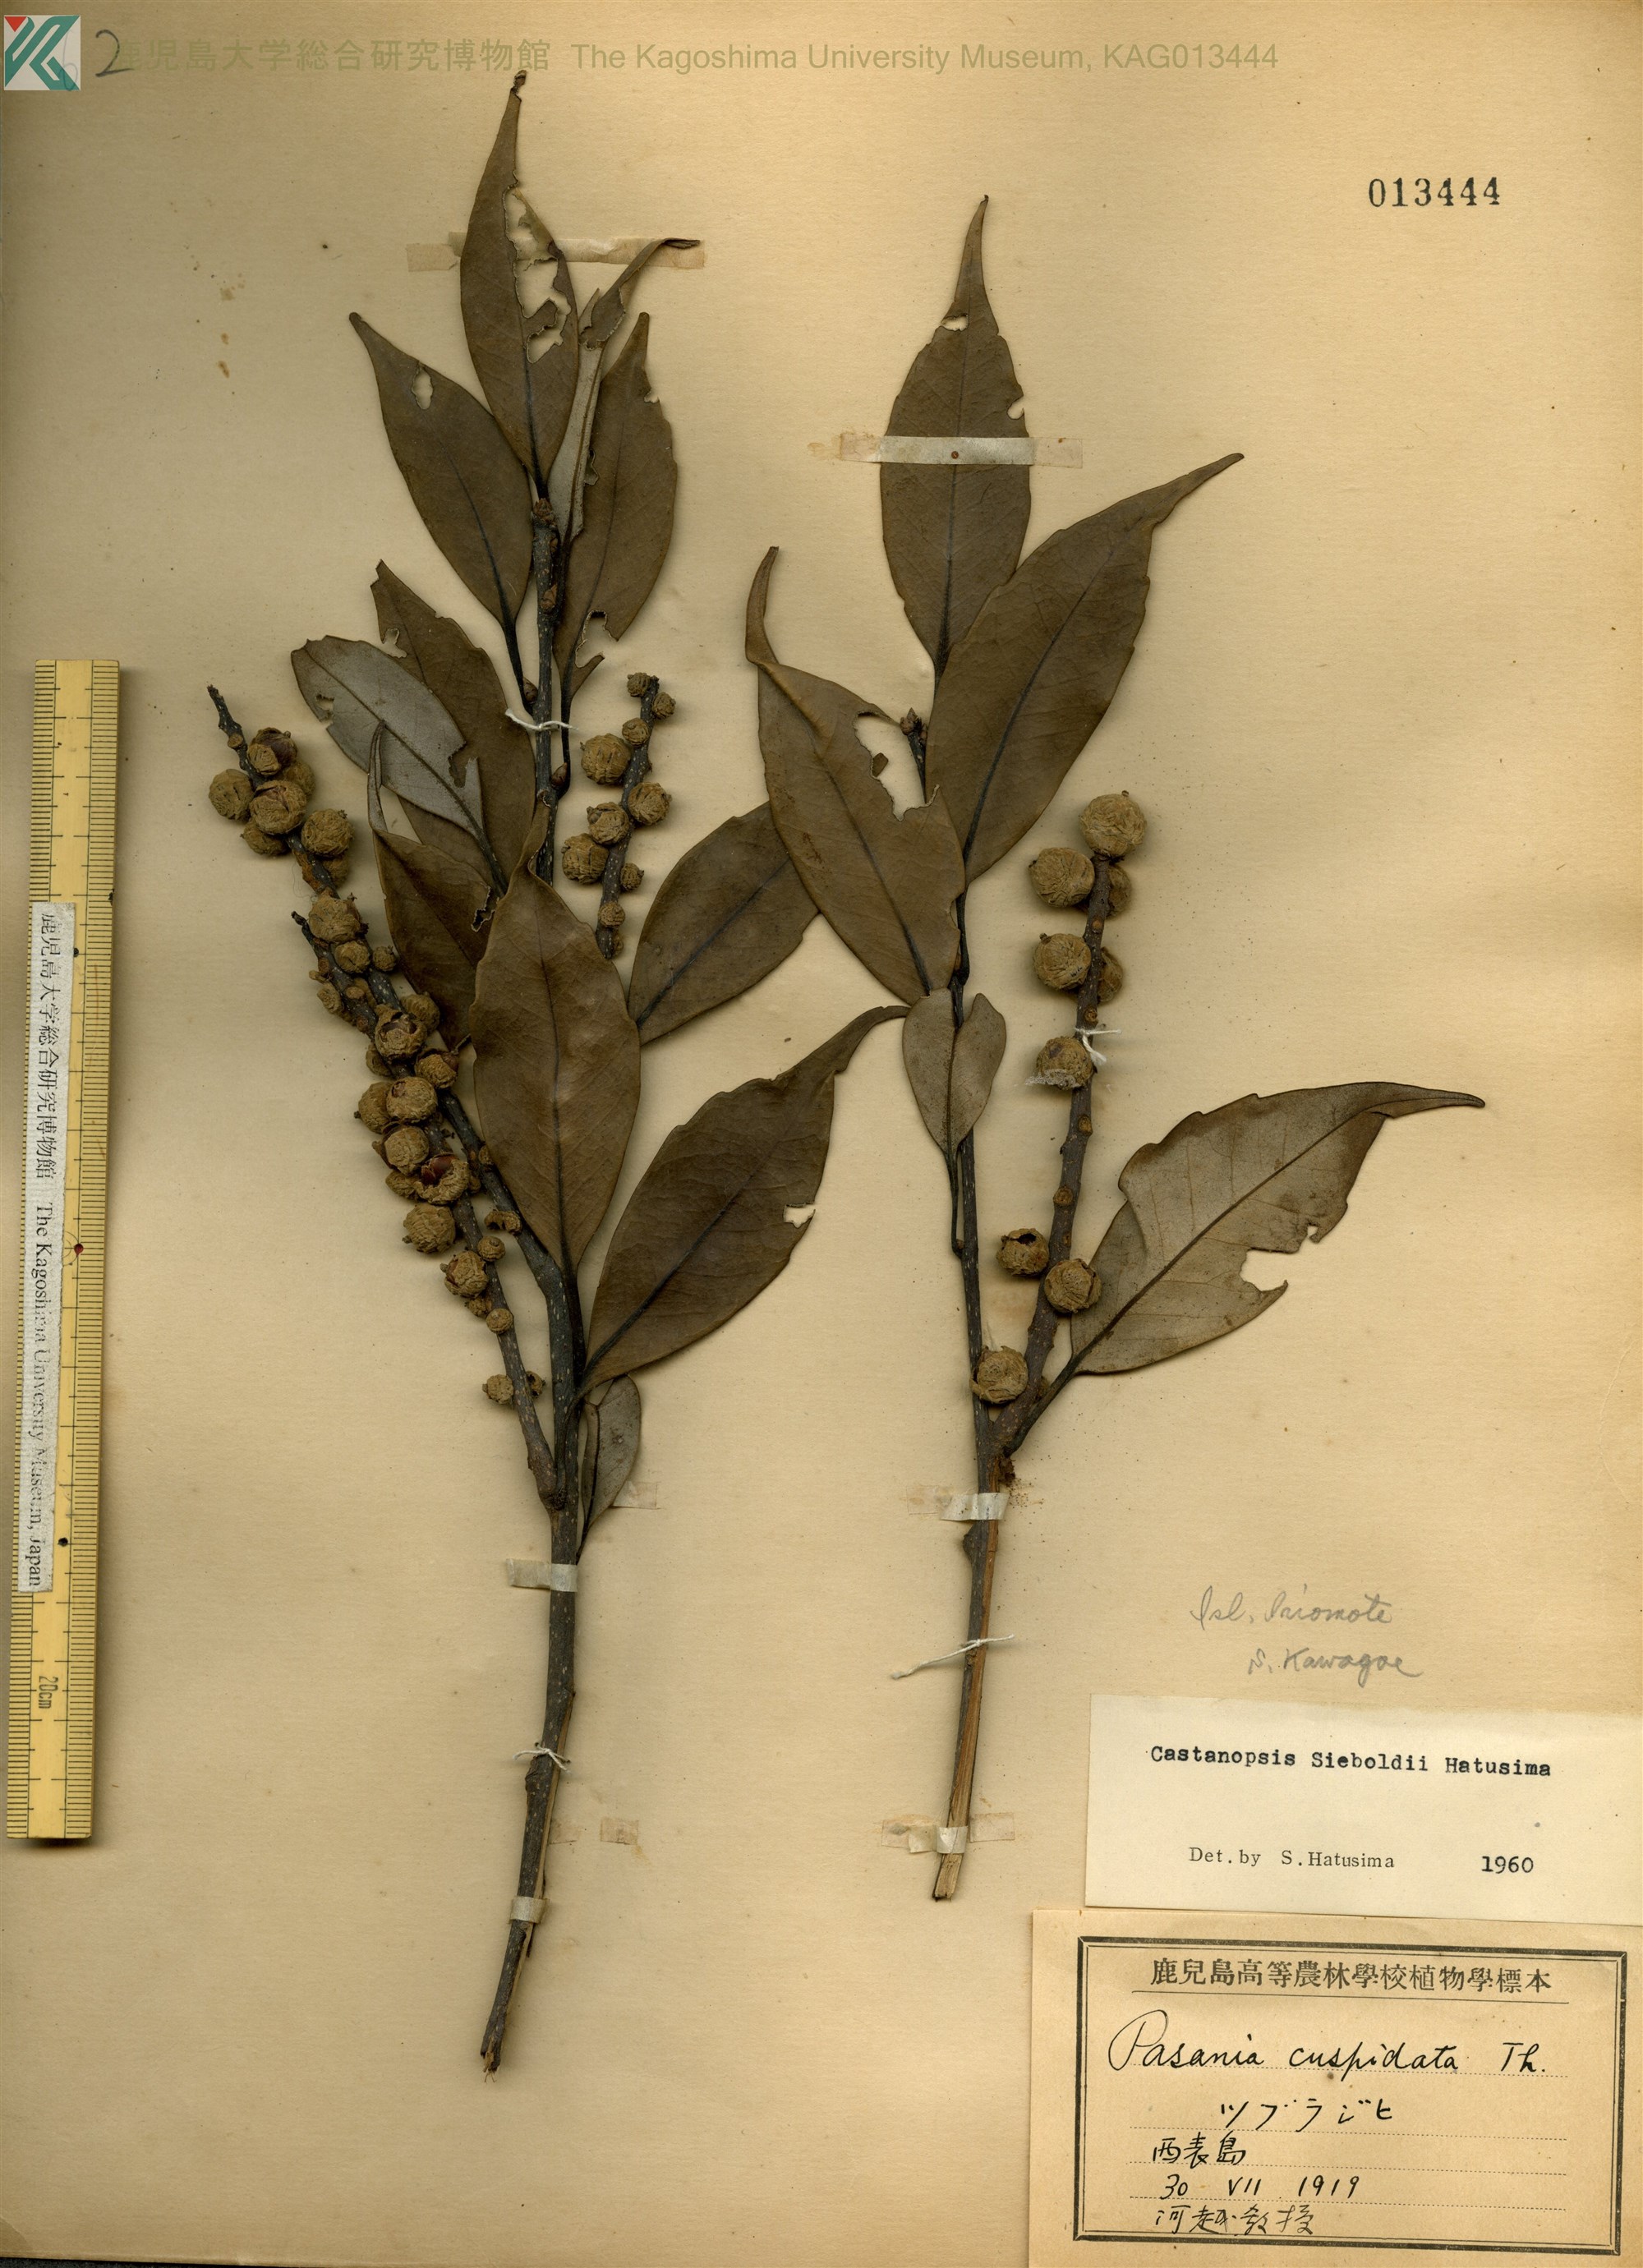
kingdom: Plantae
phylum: Tracheophyta
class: Magnoliopsida
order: Fagales
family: Fagaceae
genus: Castanopsis
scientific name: Castanopsis cuspidata
